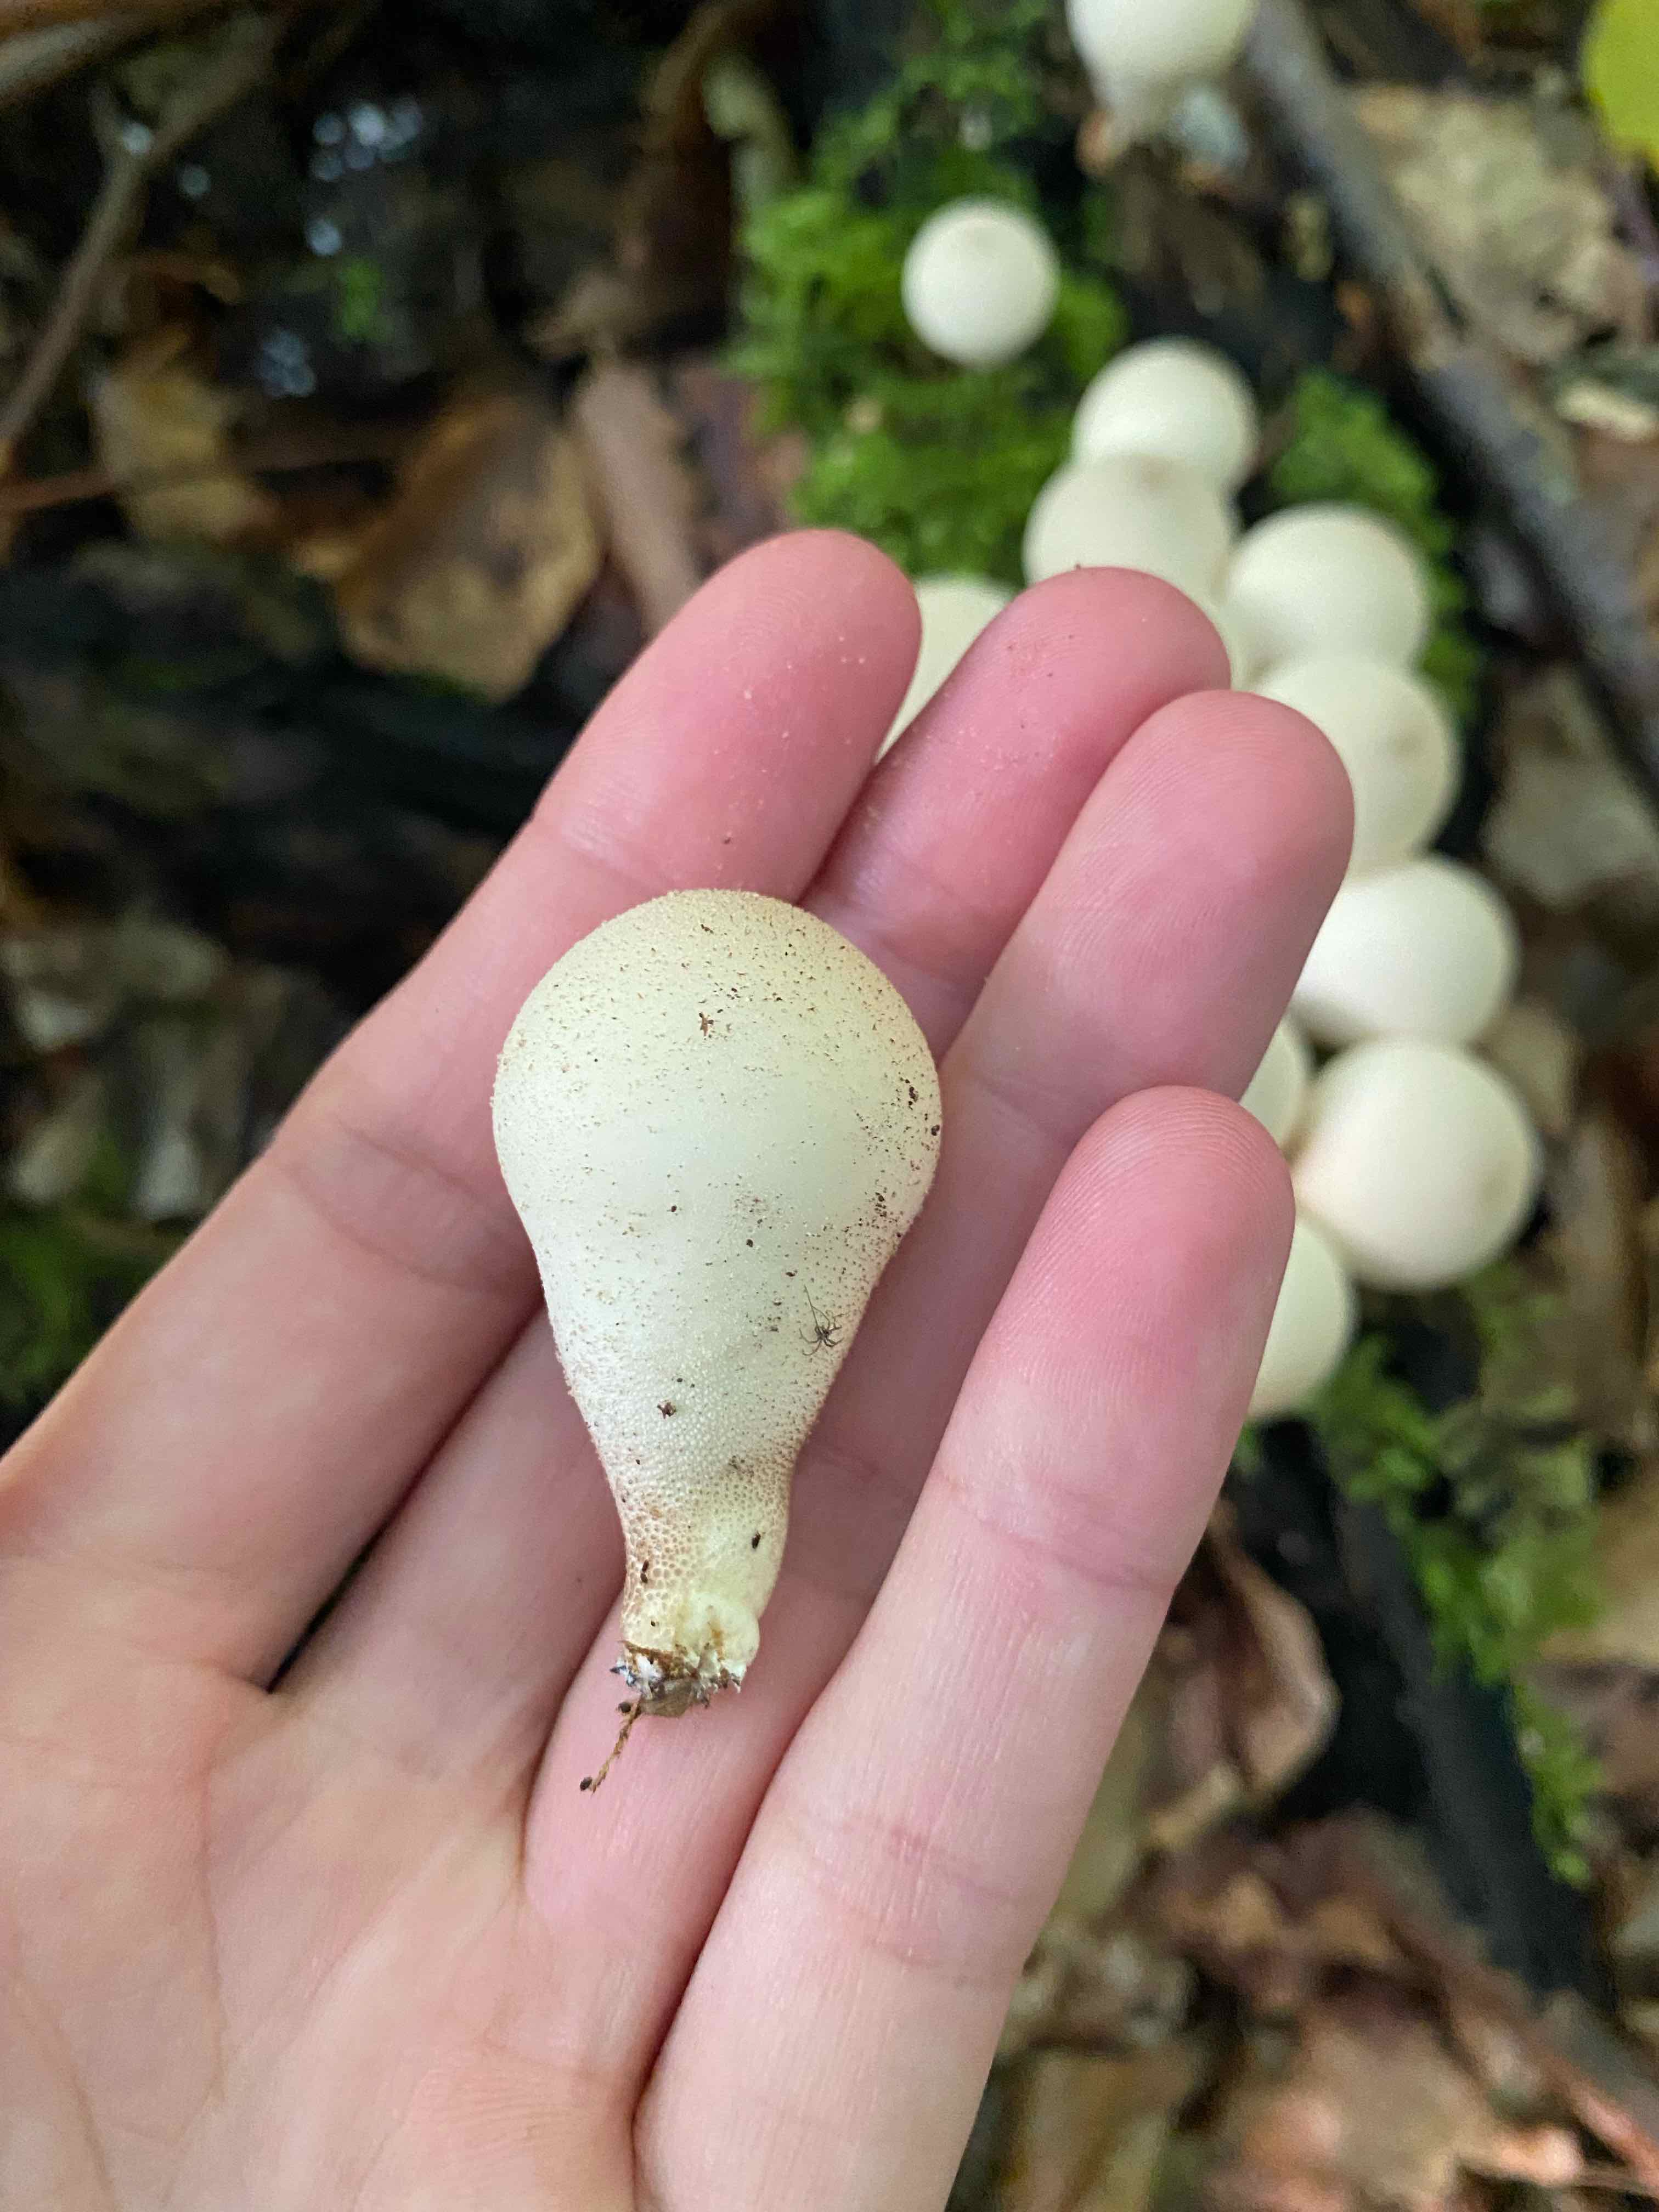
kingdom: Fungi
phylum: Basidiomycota
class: Agaricomycetes
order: Agaricales
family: Lycoperdaceae
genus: Apioperdon
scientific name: Apioperdon pyriforme
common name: pære-støvbold
